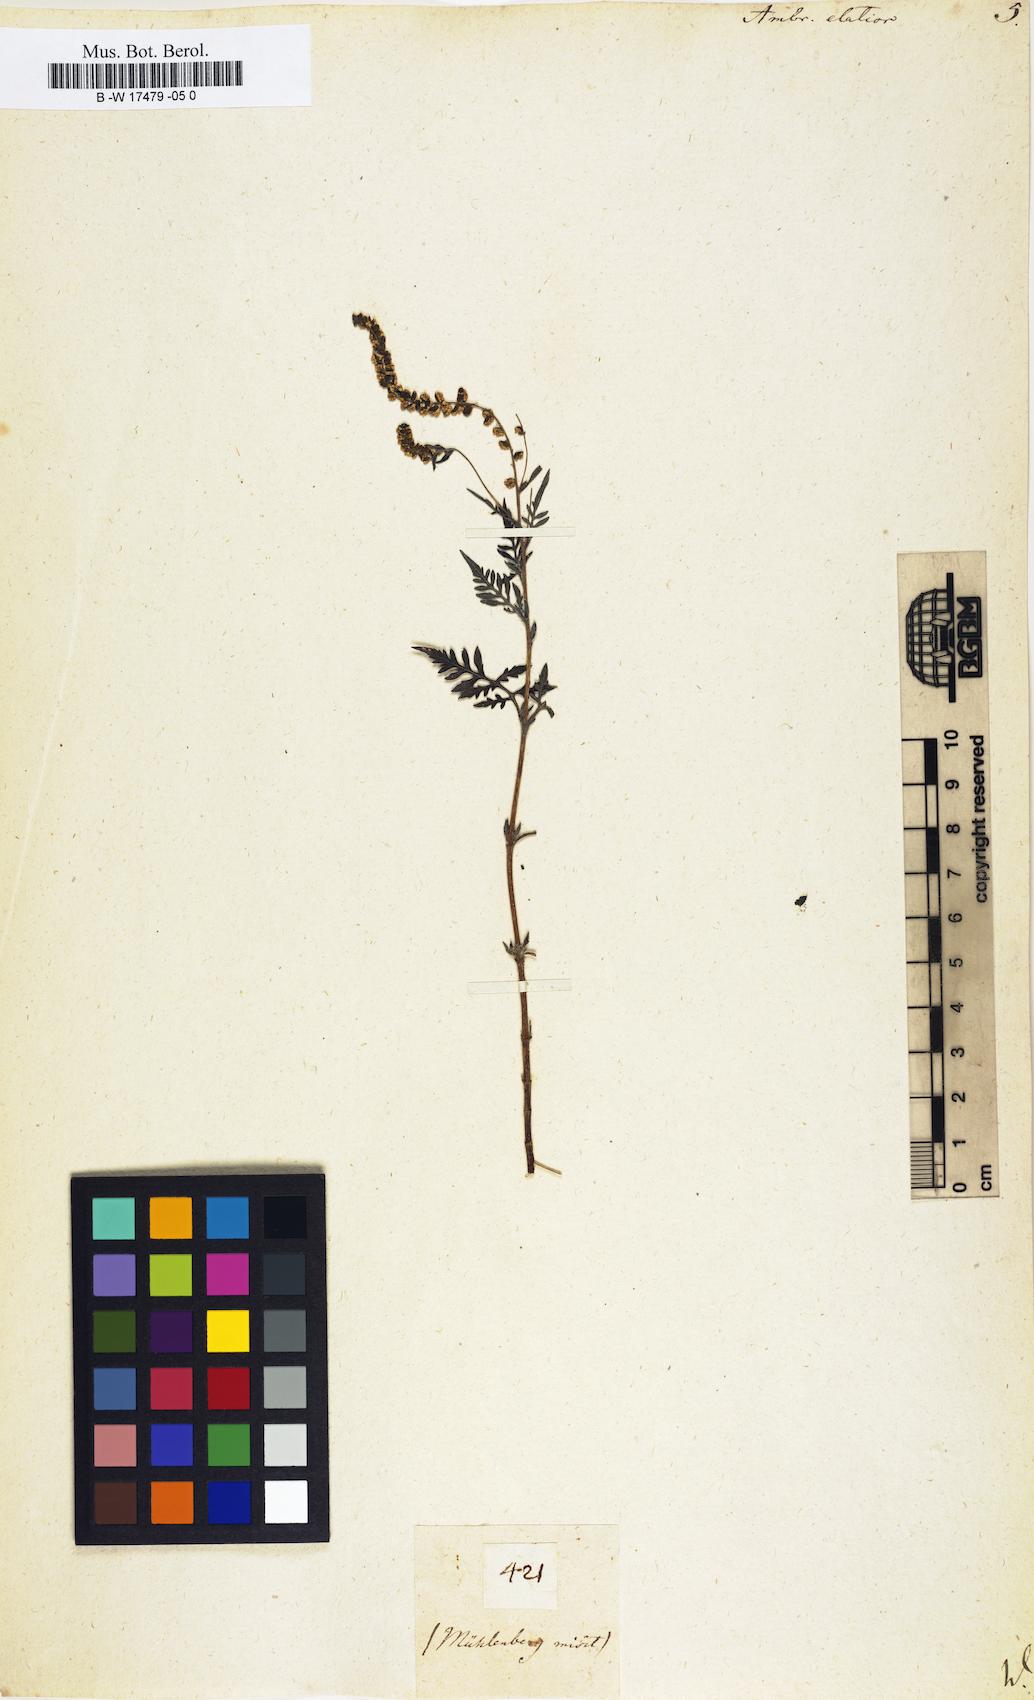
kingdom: Plantae
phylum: Tracheophyta
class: Magnoliopsida
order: Asterales
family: Asteraceae
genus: Ambrosia
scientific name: Ambrosia artemisiifolia
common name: Annual ragweed
